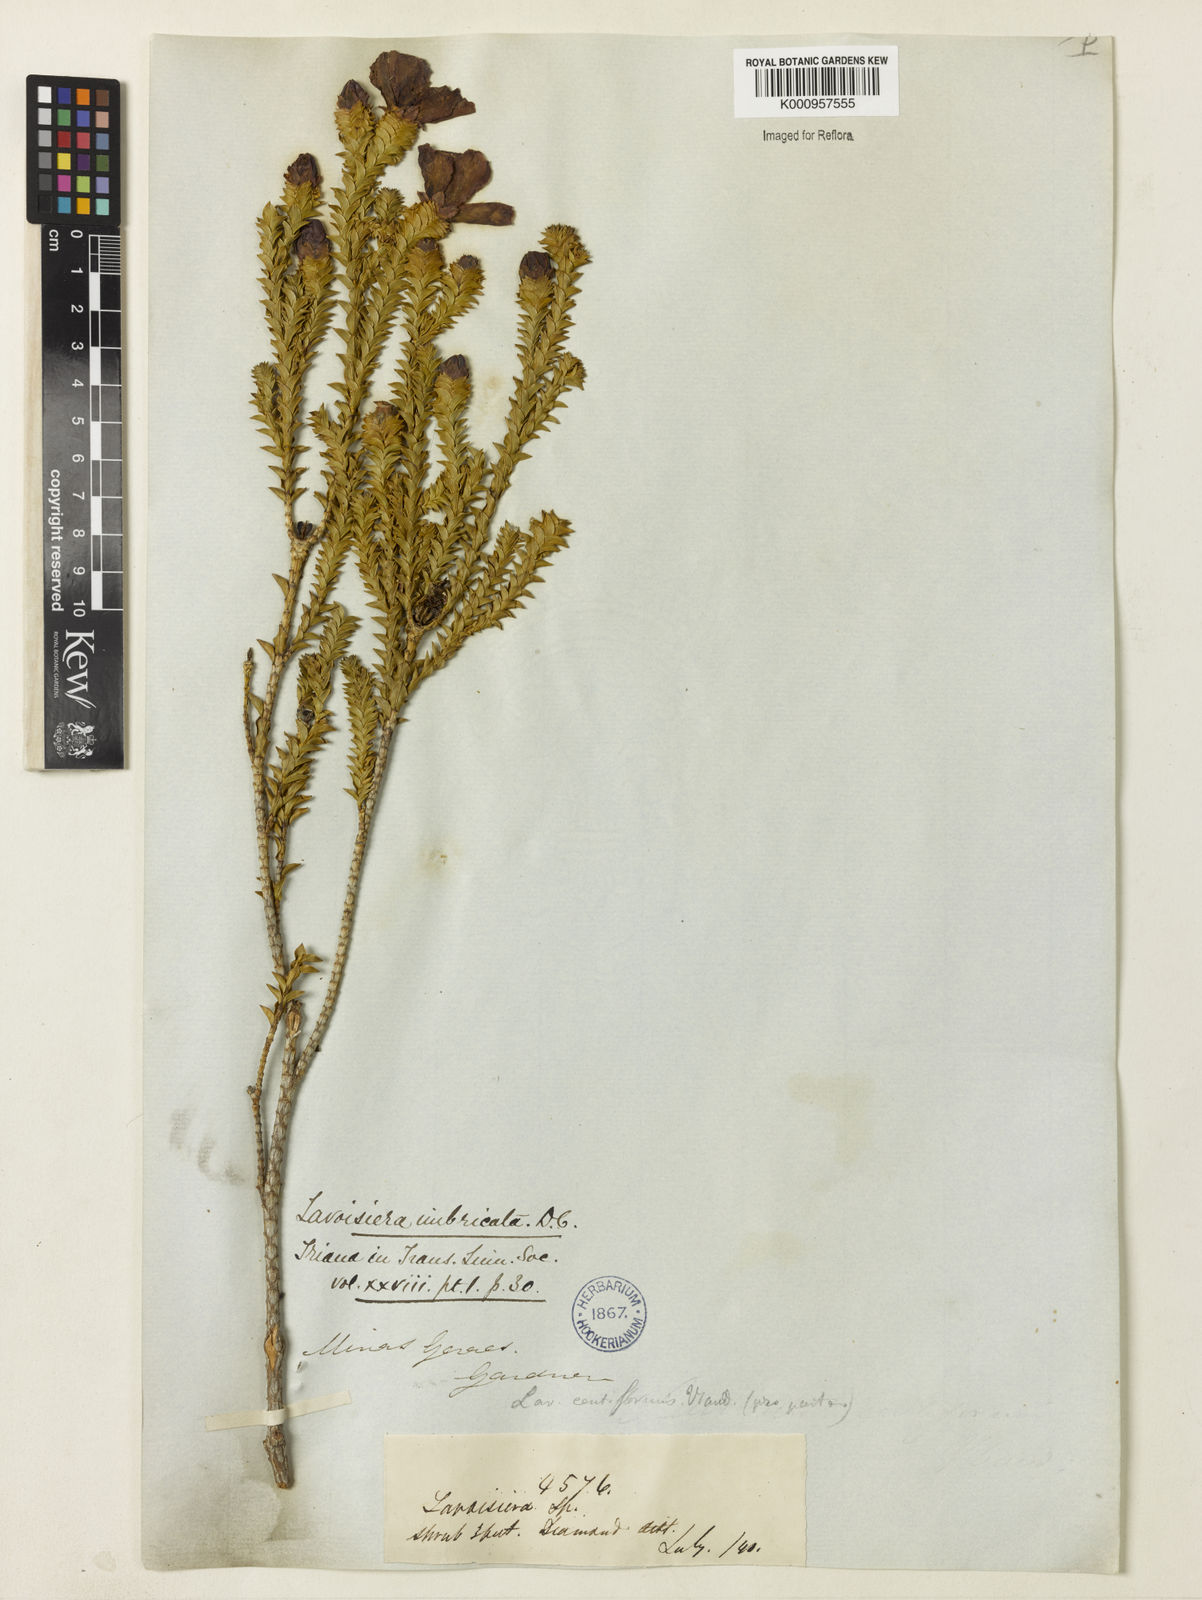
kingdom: Plantae
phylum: Tracheophyta
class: Magnoliopsida
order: Myrtales
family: Melastomataceae
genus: Microlicia
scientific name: Microlicia cataphracta
